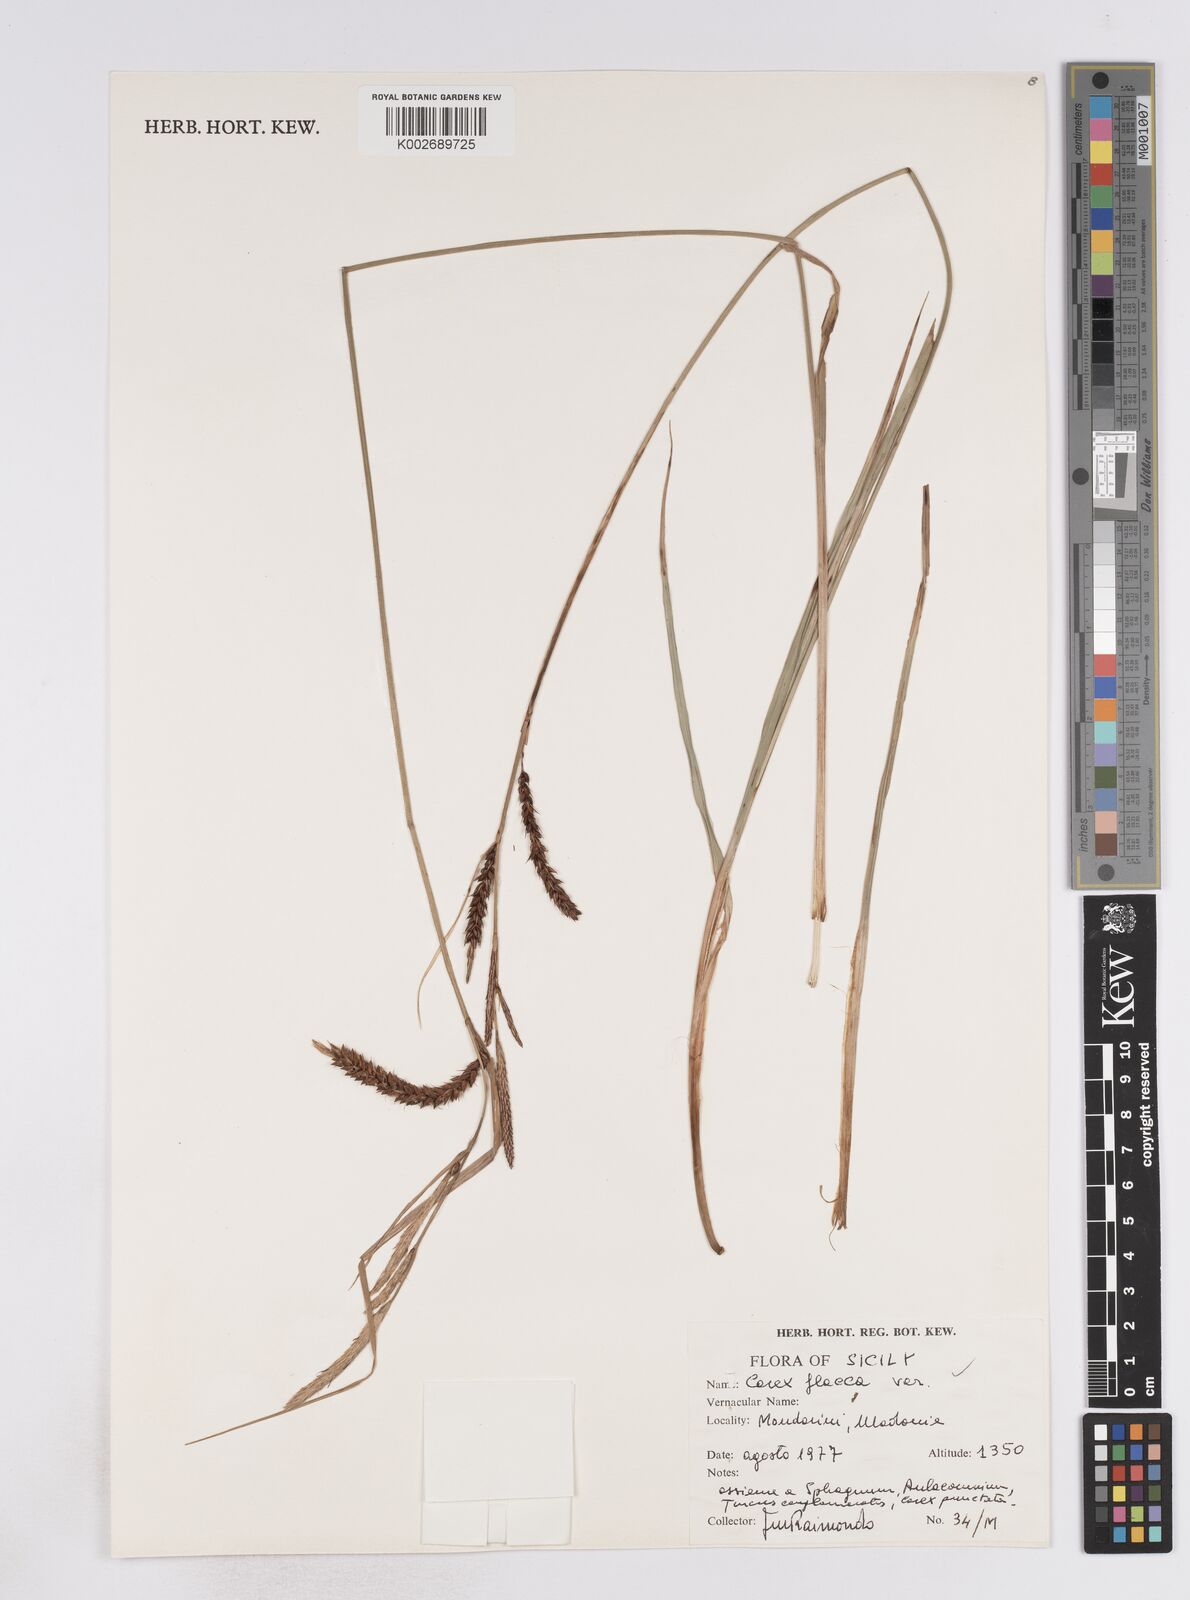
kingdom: Plantae
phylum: Tracheophyta
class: Liliopsida
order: Poales
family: Cyperaceae
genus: Carex
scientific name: Carex flacca
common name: Glaucous sedge
